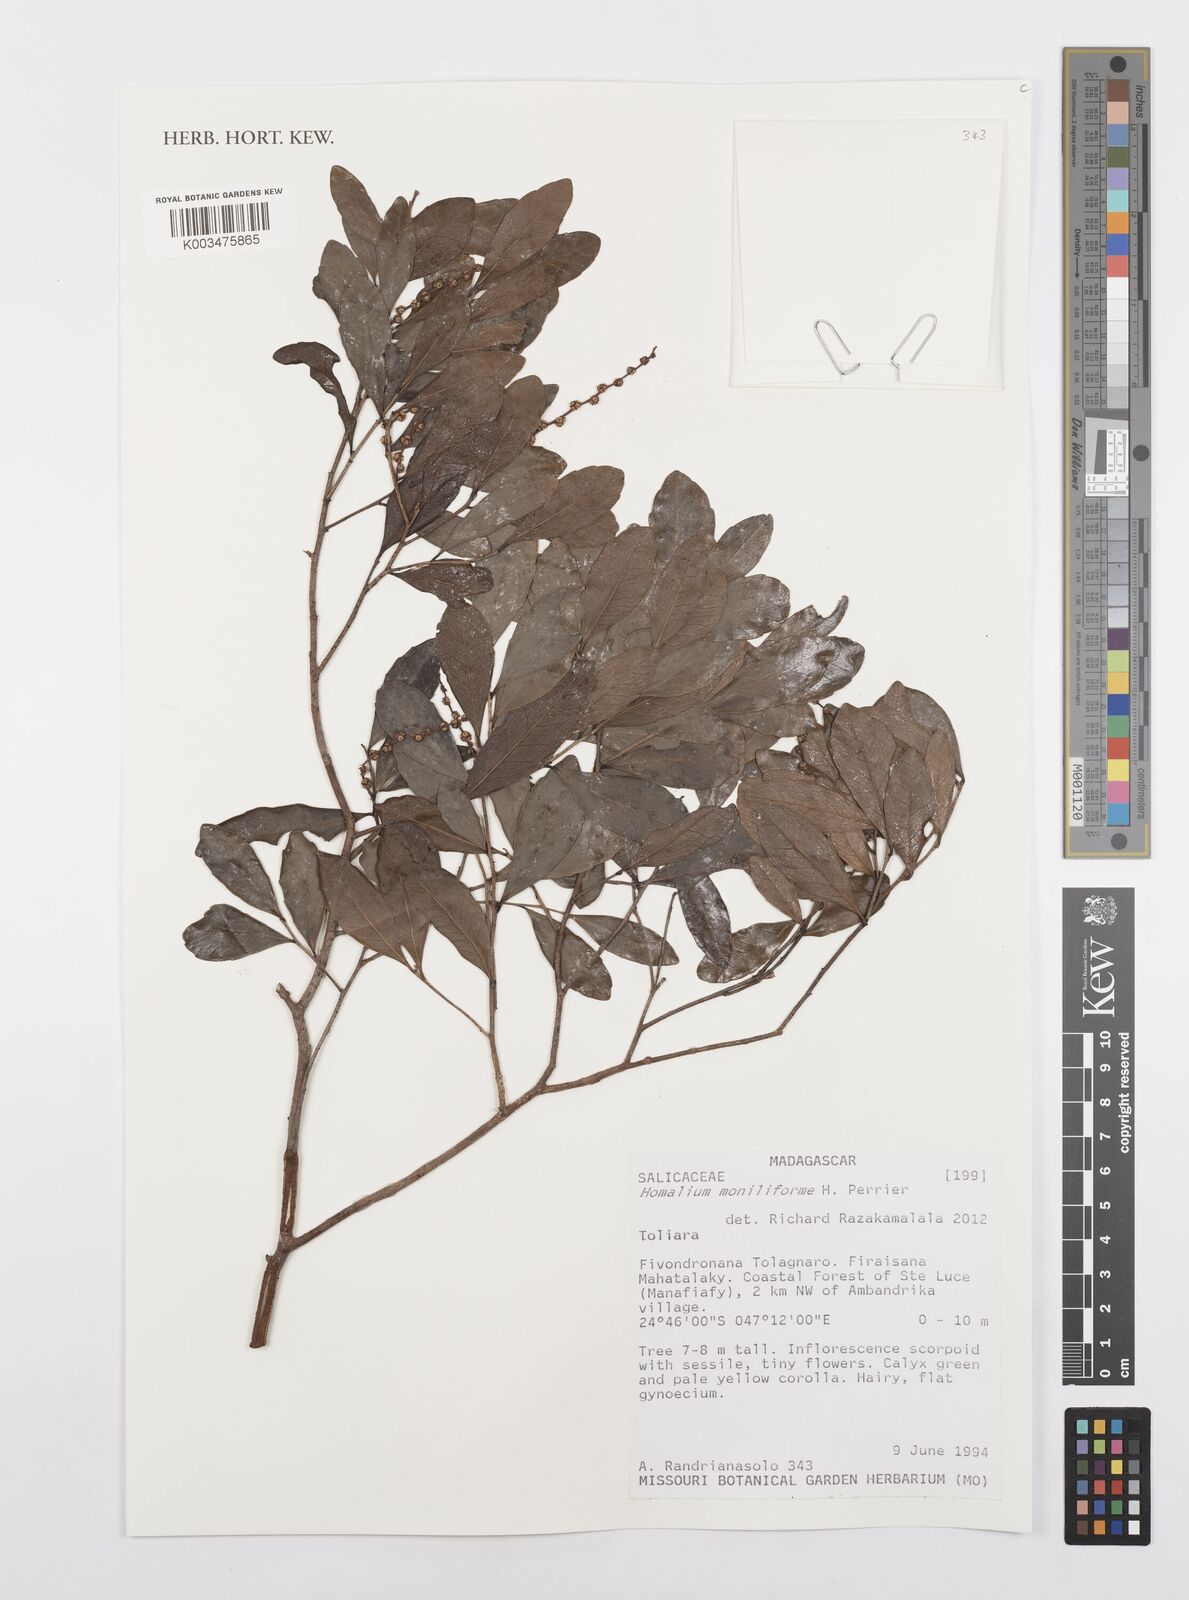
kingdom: Plantae
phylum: Tracheophyta
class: Magnoliopsida
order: Malpighiales
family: Salicaceae
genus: Homalium
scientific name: Homalium moniliforme
